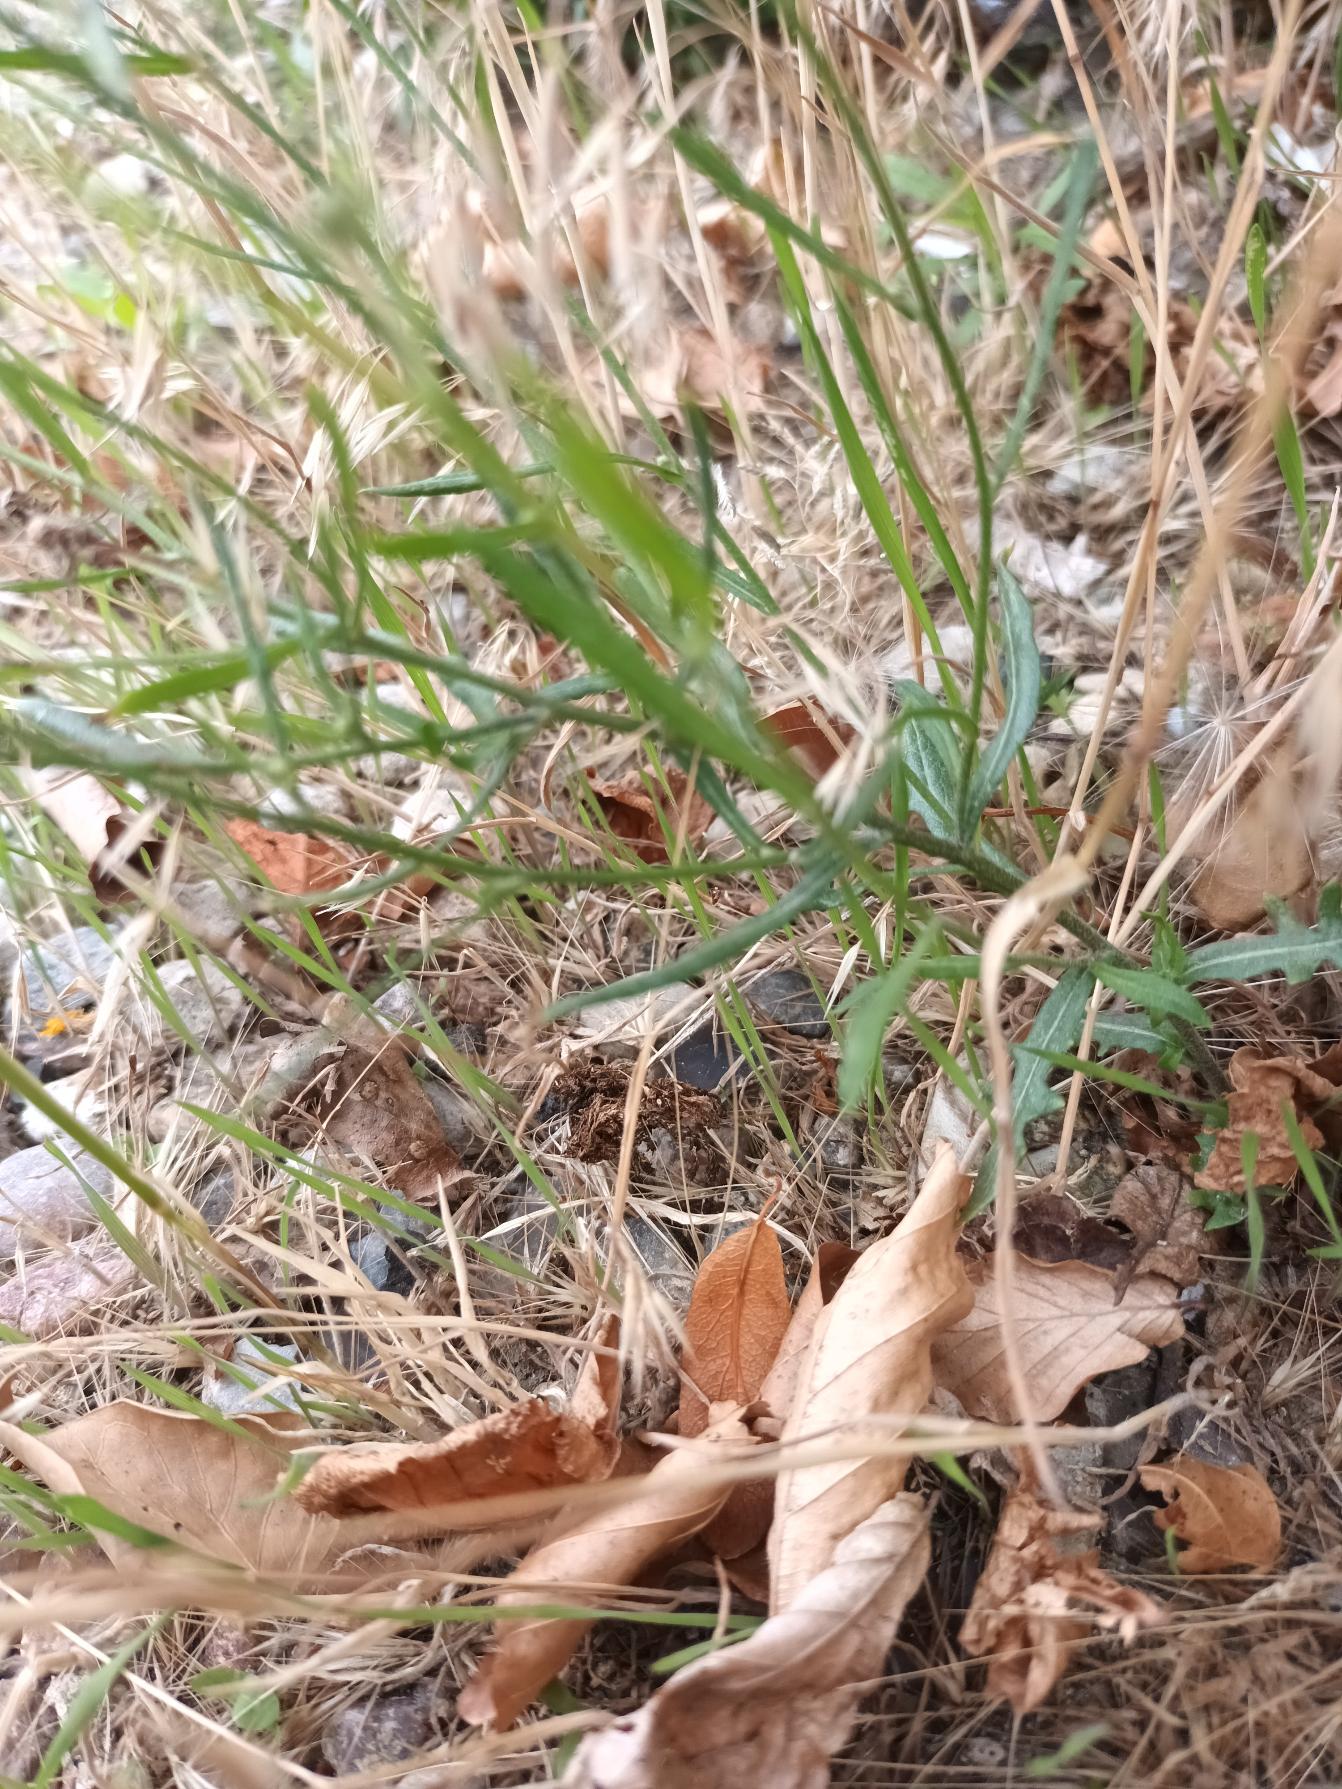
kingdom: Plantae
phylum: Tracheophyta
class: Magnoliopsida
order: Asterales
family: Asteraceae
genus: Crepis
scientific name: Crepis tectorum
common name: Tag-høgeskæg
